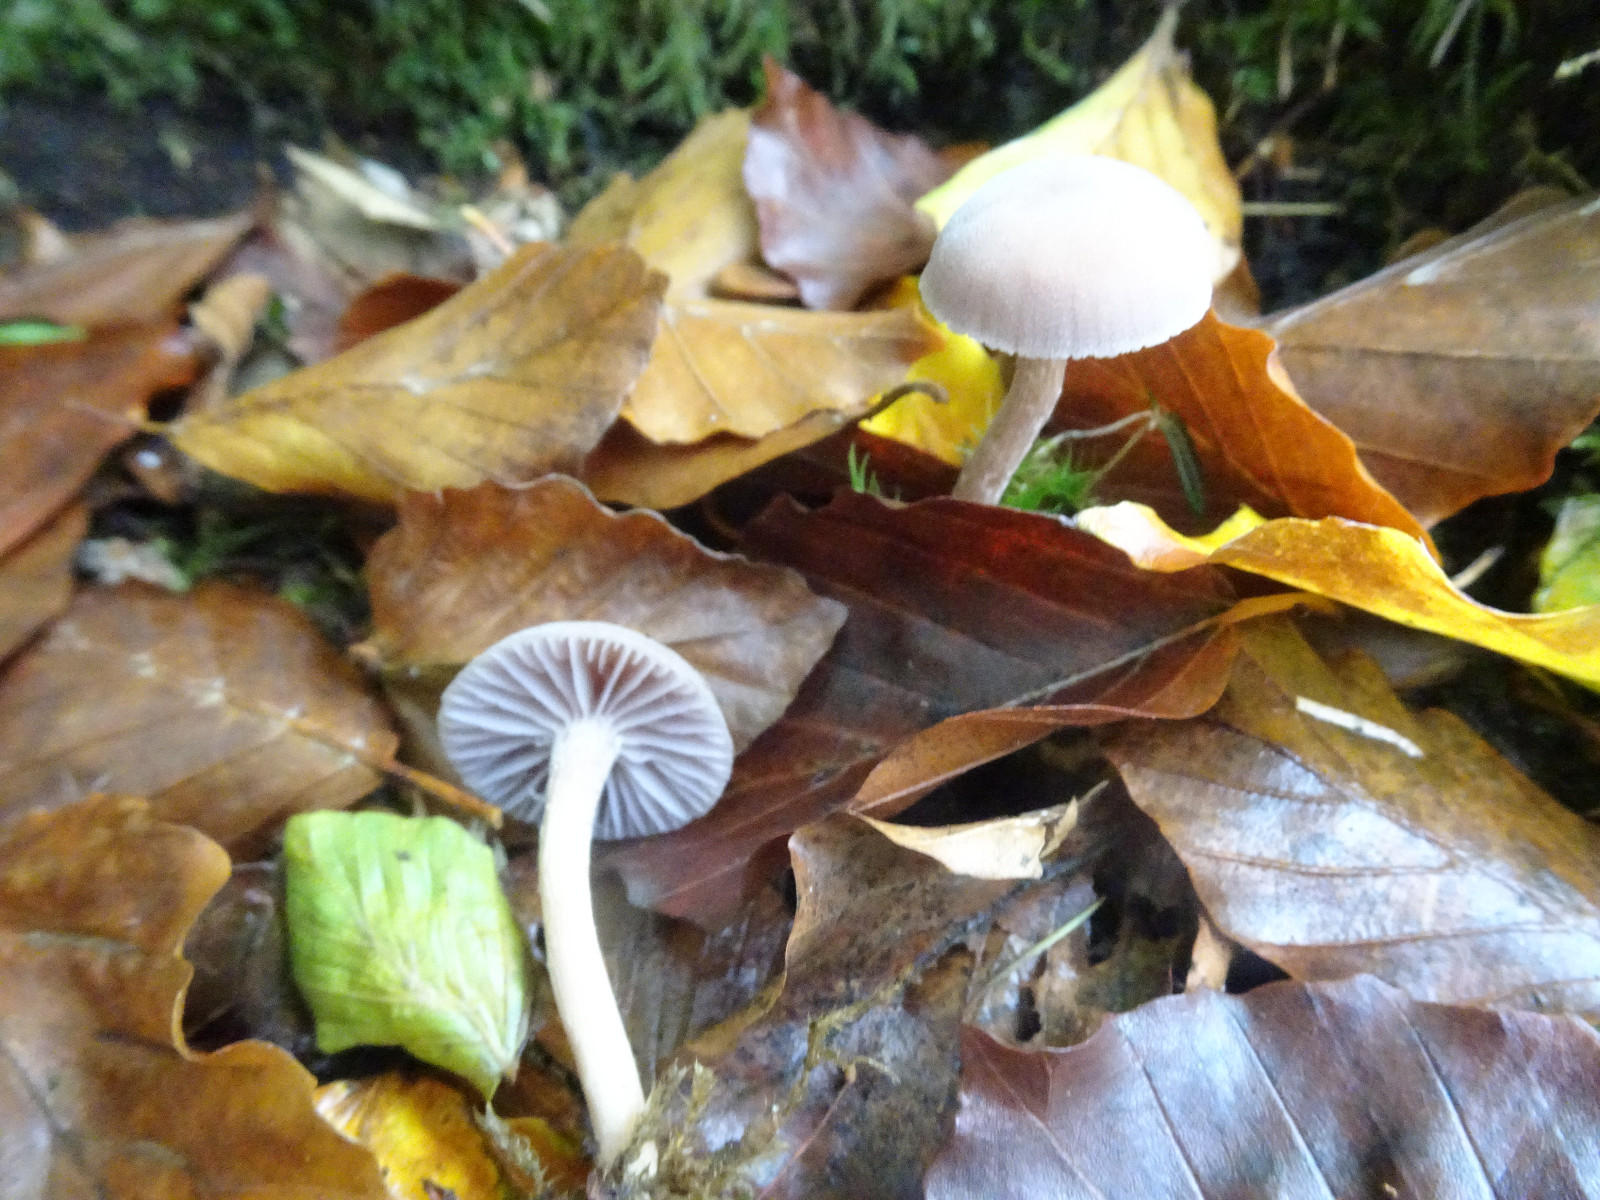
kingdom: Fungi
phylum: Basidiomycota
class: Agaricomycetes
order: Agaricales
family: Hydnangiaceae
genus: Laccaria
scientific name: Laccaria amethystina
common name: violet ametysthat
